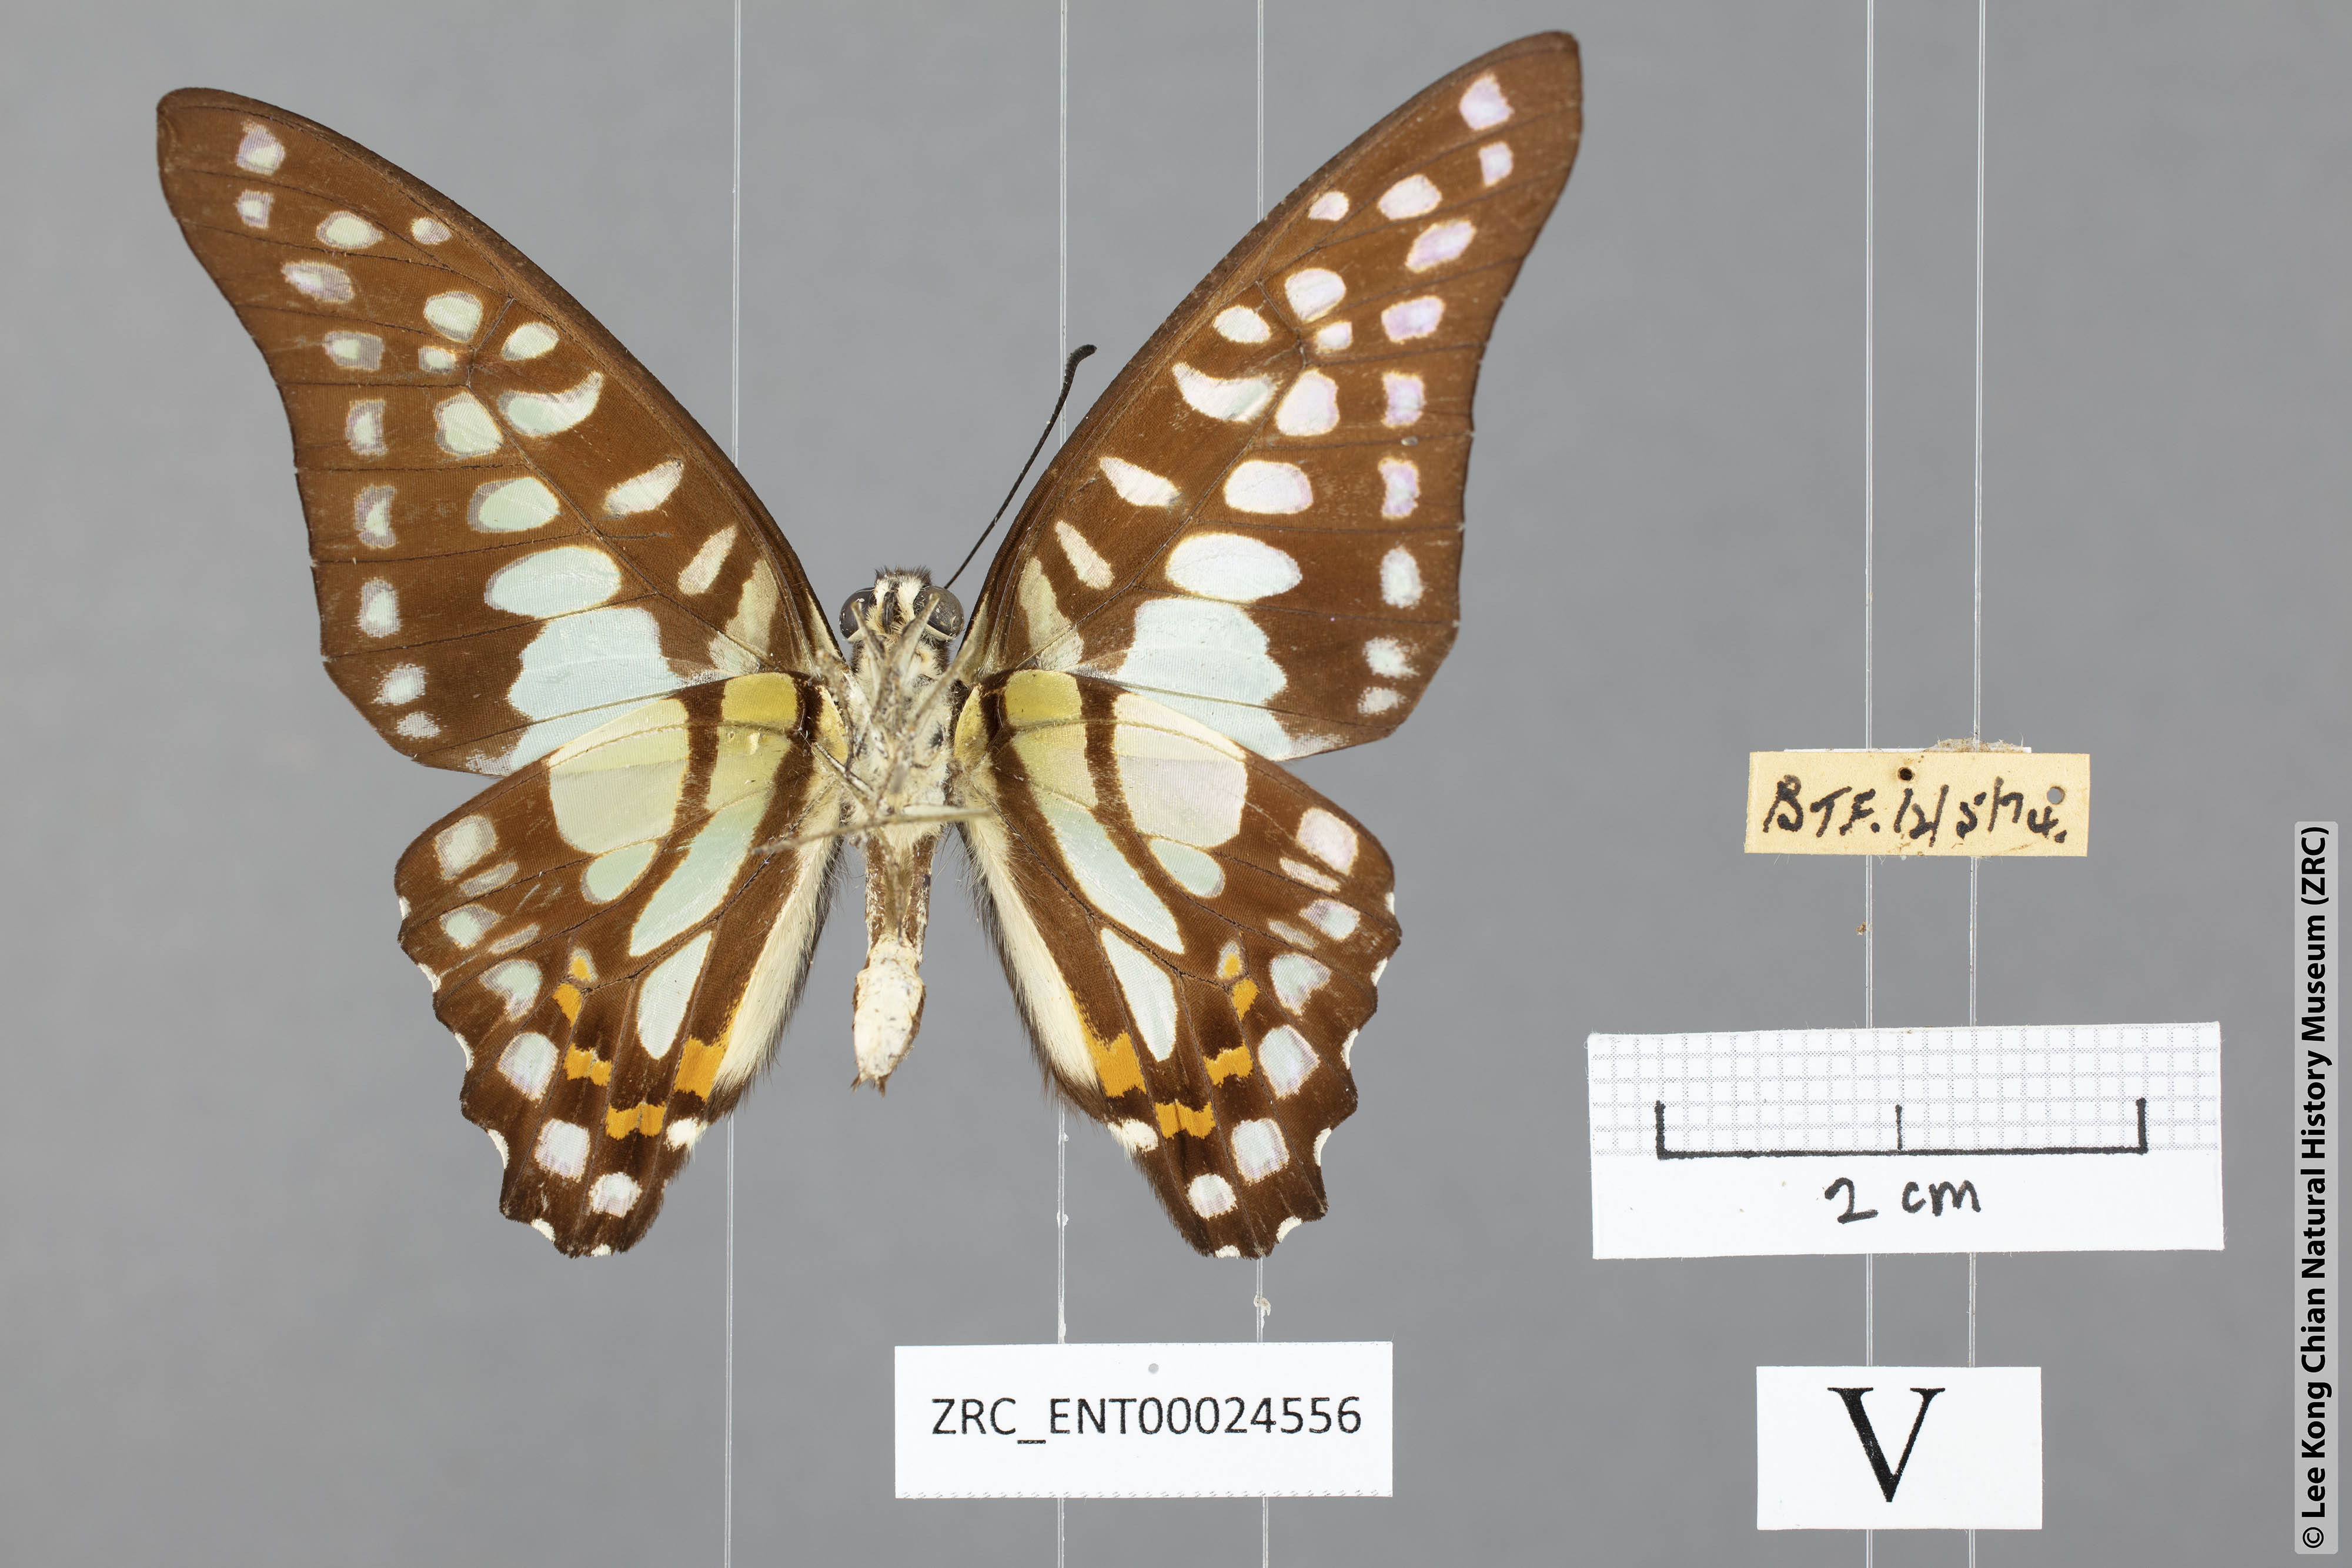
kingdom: Animalia
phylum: Arthropoda
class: Insecta
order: Lepidoptera
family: Papilionidae
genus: Graphium
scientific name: Graphium bathycles
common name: Veined jay
